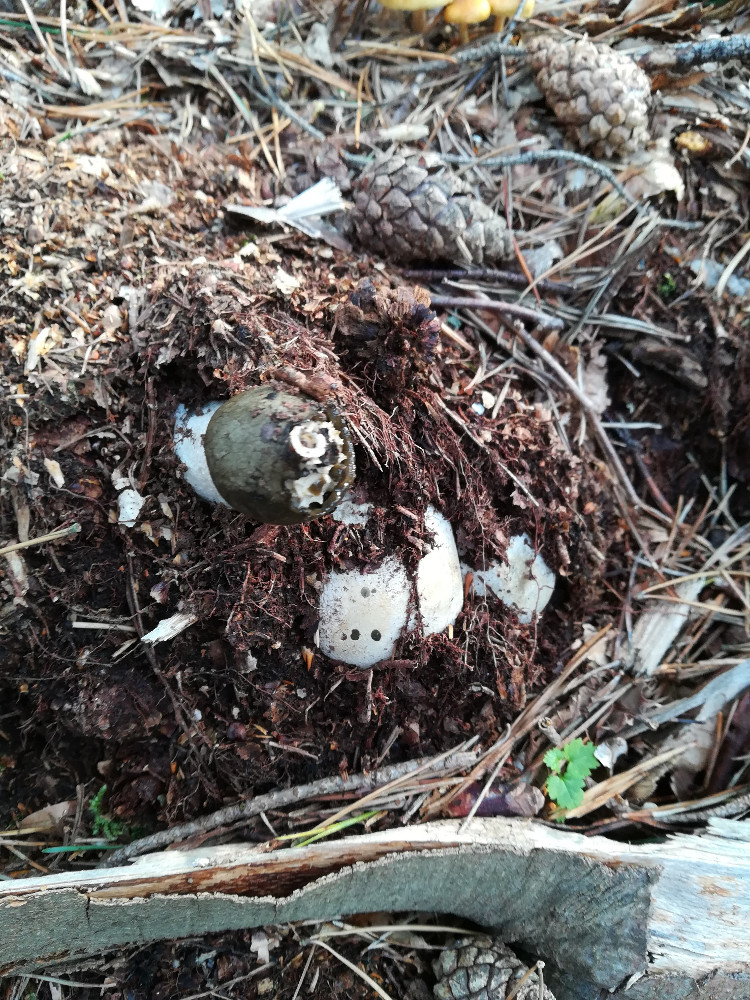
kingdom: Fungi
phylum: Basidiomycota
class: Agaricomycetes
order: Phallales
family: Phallaceae
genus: Phallus
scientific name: Phallus impudicus
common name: almindelig stinksvamp
